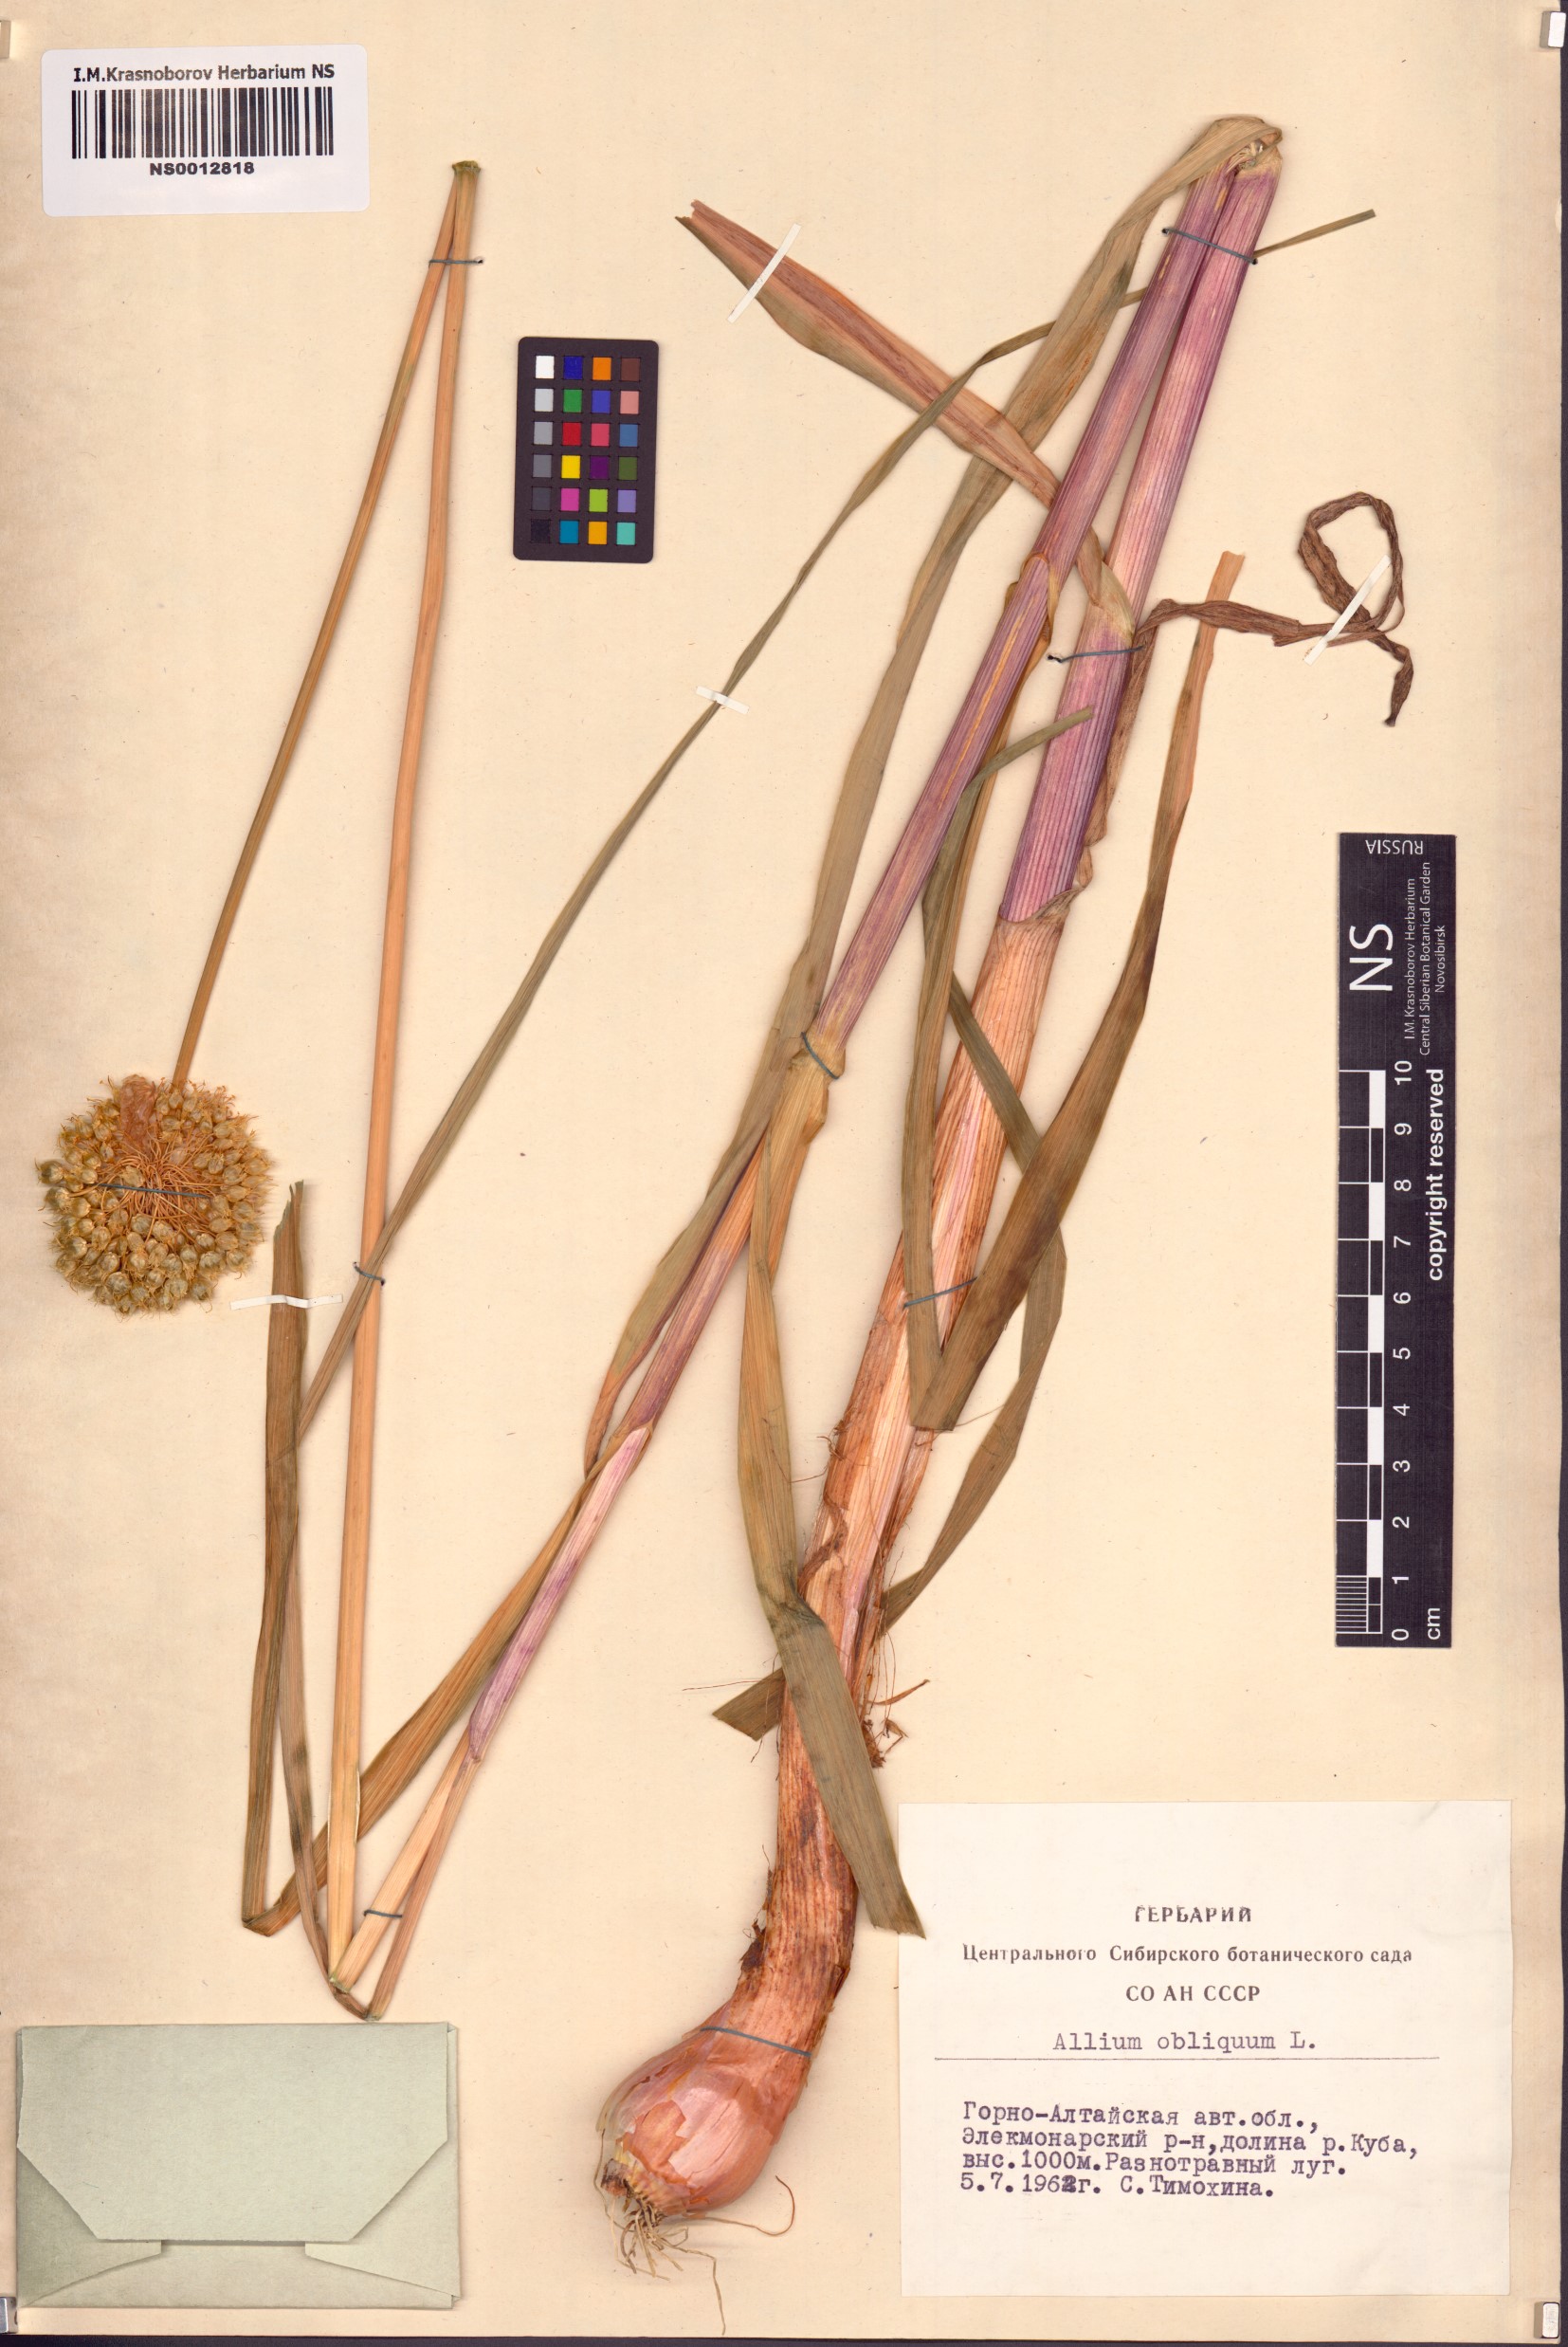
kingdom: Plantae
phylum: Tracheophyta
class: Liliopsida
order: Asparagales
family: Amaryllidaceae
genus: Allium
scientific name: Allium obliquum
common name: Oblique onion
